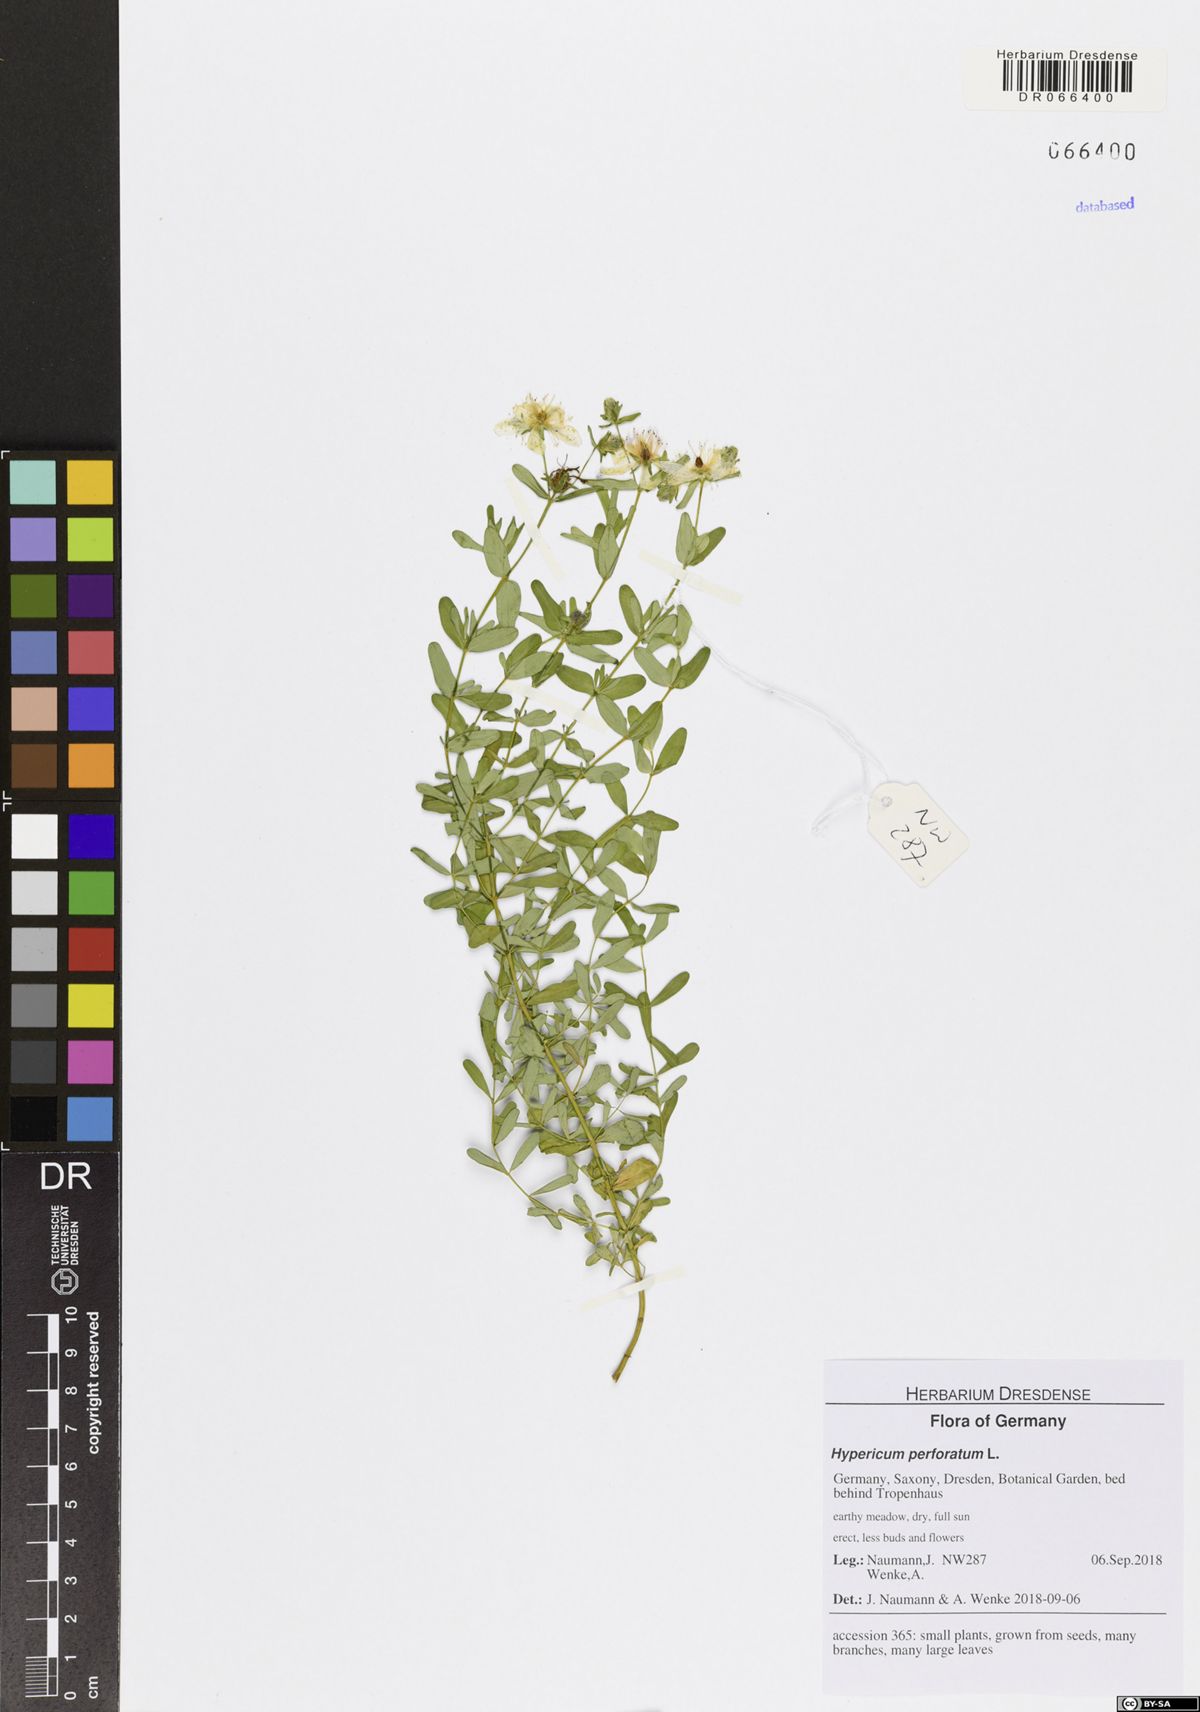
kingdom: Plantae
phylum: Tracheophyta
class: Magnoliopsida
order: Malpighiales
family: Hypericaceae
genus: Hypericum
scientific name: Hypericum perforatum
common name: Common st. johnswort
